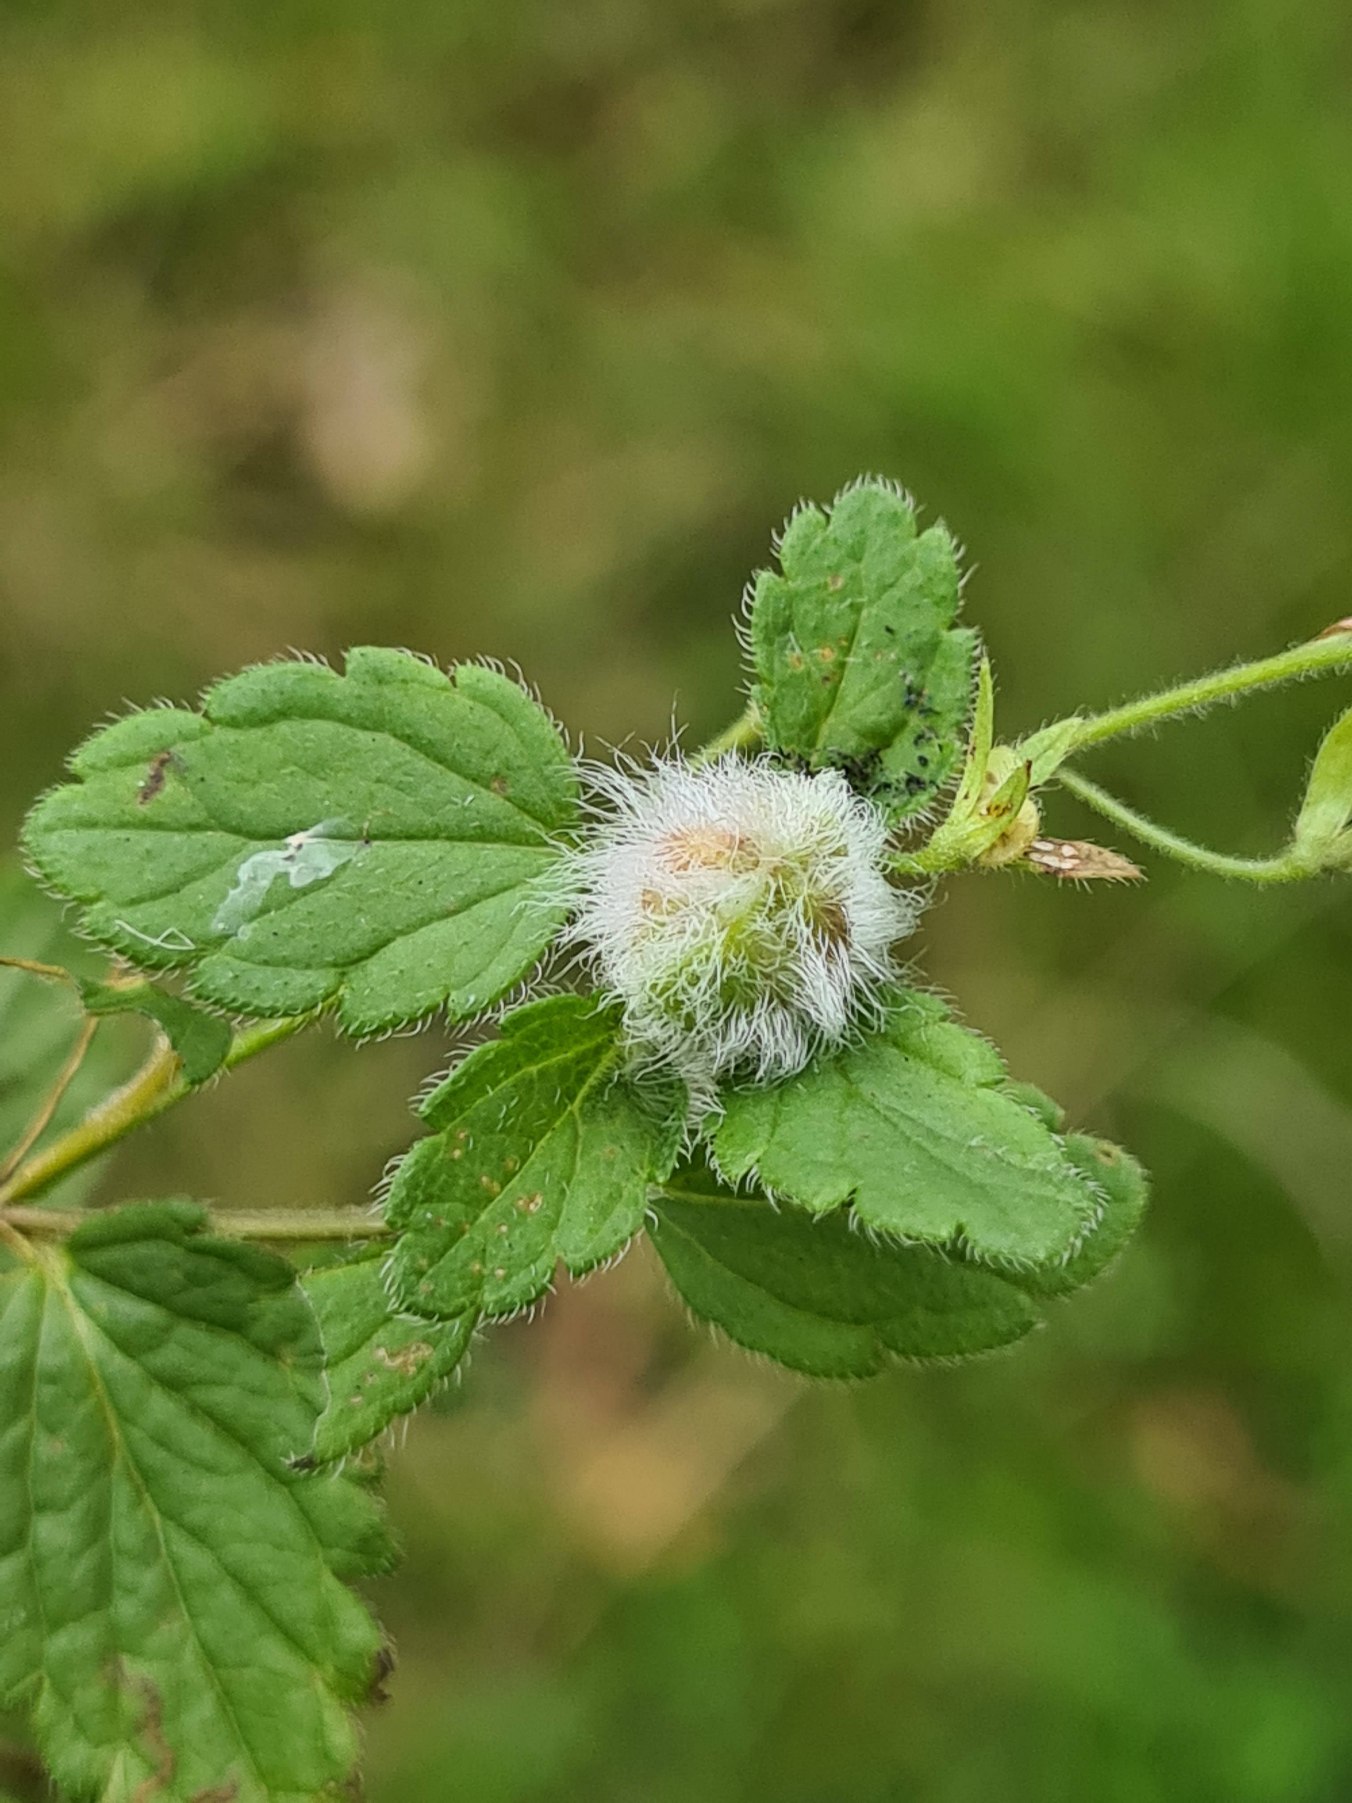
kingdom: Animalia
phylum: Arthropoda
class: Insecta
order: Diptera
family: Cecidomyiidae
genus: Jaapiella
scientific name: Jaapiella veronicae
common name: Ærenprisgalmyg
